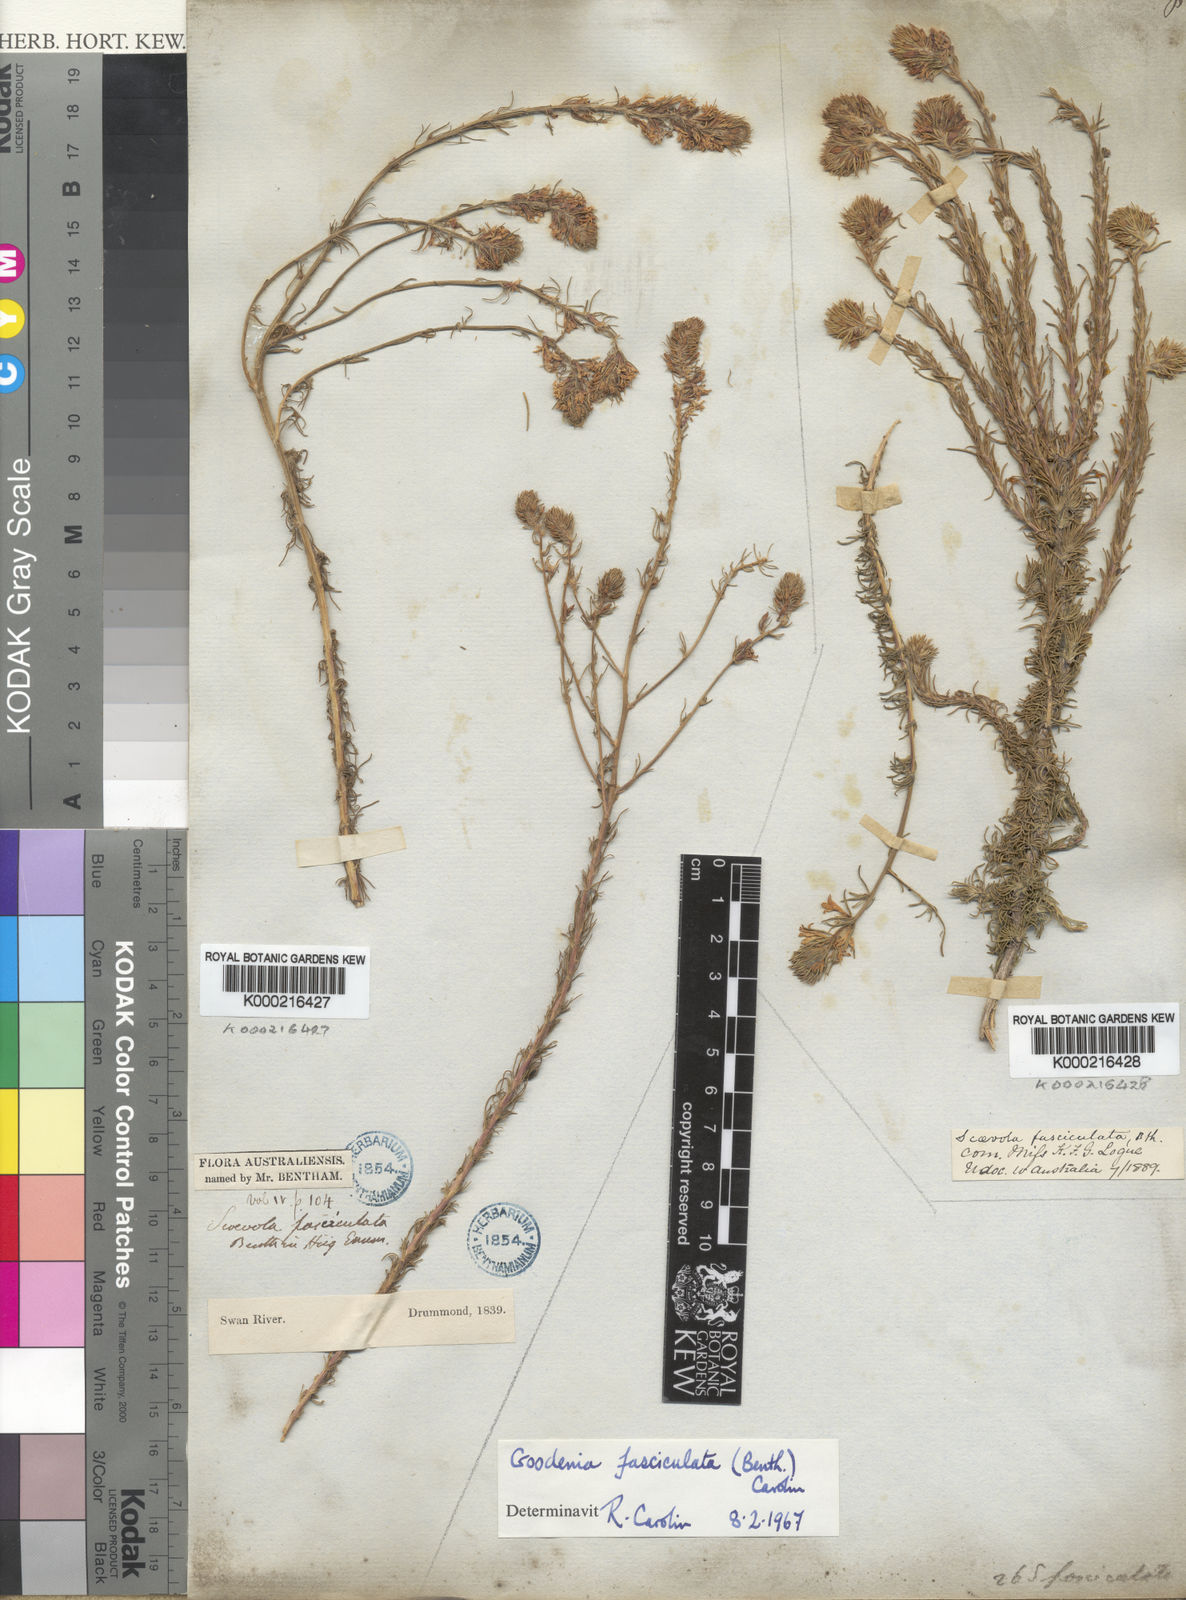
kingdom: Plantae
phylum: Tracheophyta
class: Magnoliopsida
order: Asterales
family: Goodeniaceae
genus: Goodenia
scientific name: Goodenia fasciculata
